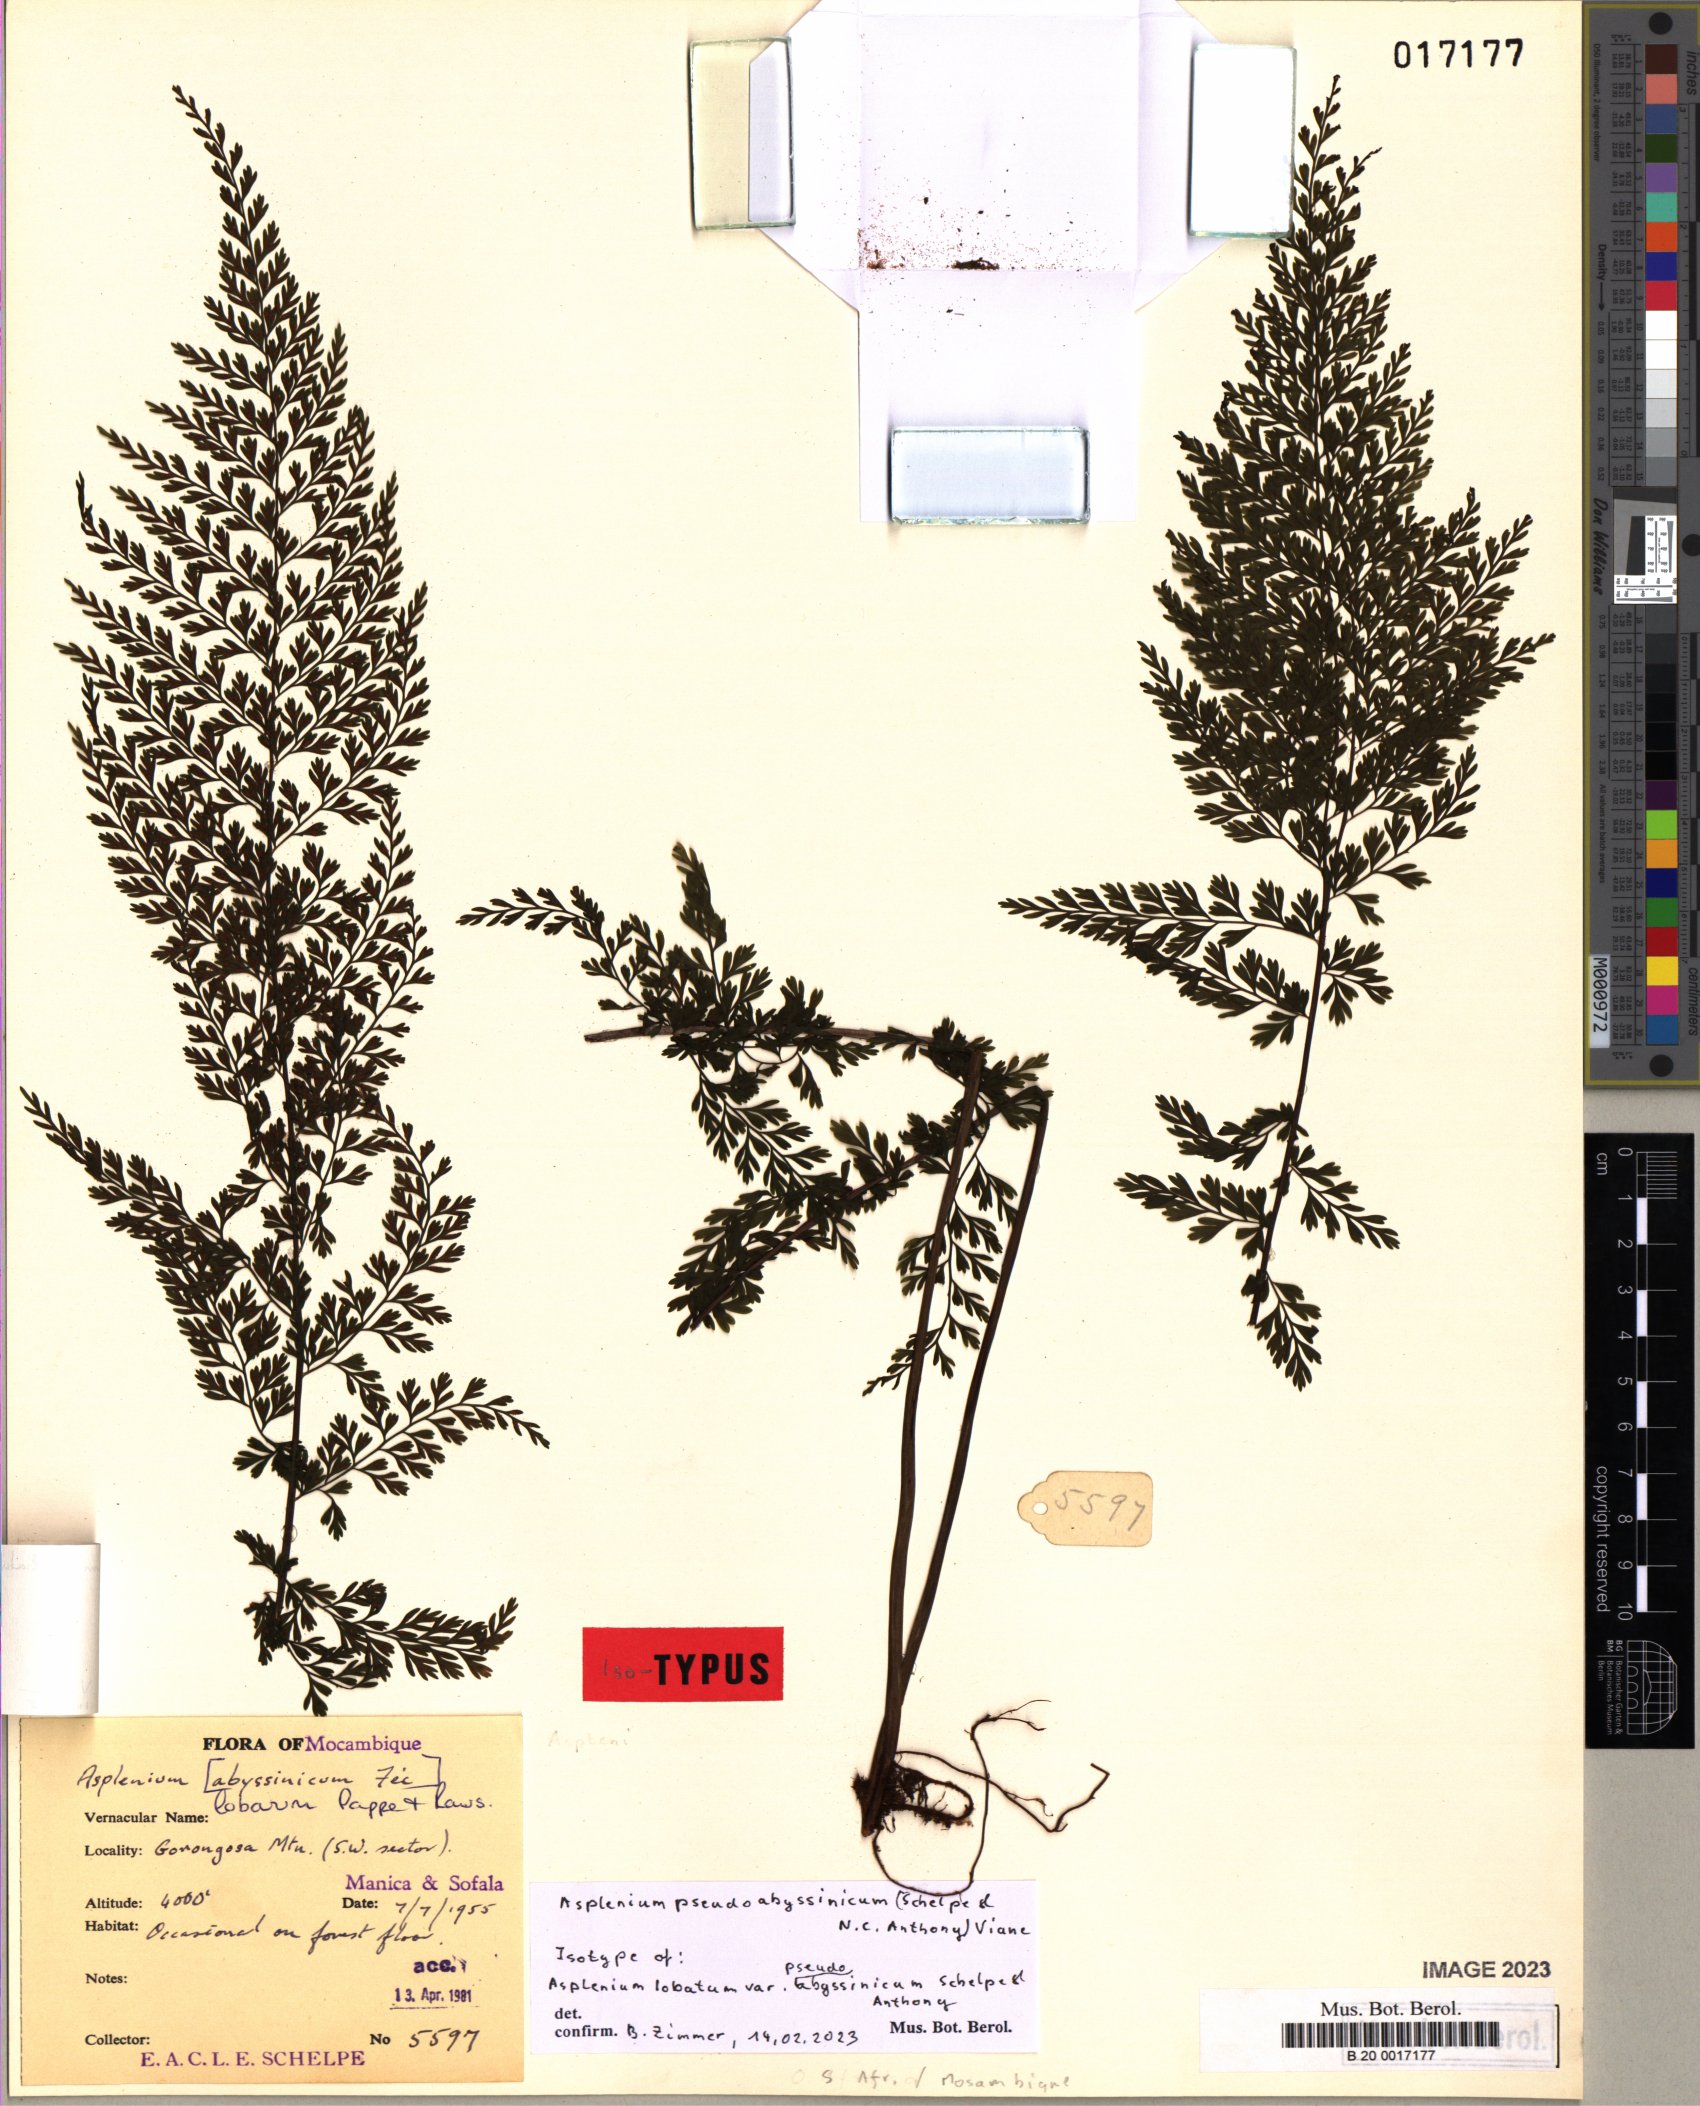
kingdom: Plantae
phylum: Tracheophyta
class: Polypodiopsida
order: Polypodiales
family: Aspleniaceae
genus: Asplenium
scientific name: Asplenium pseudoabyssinicum
